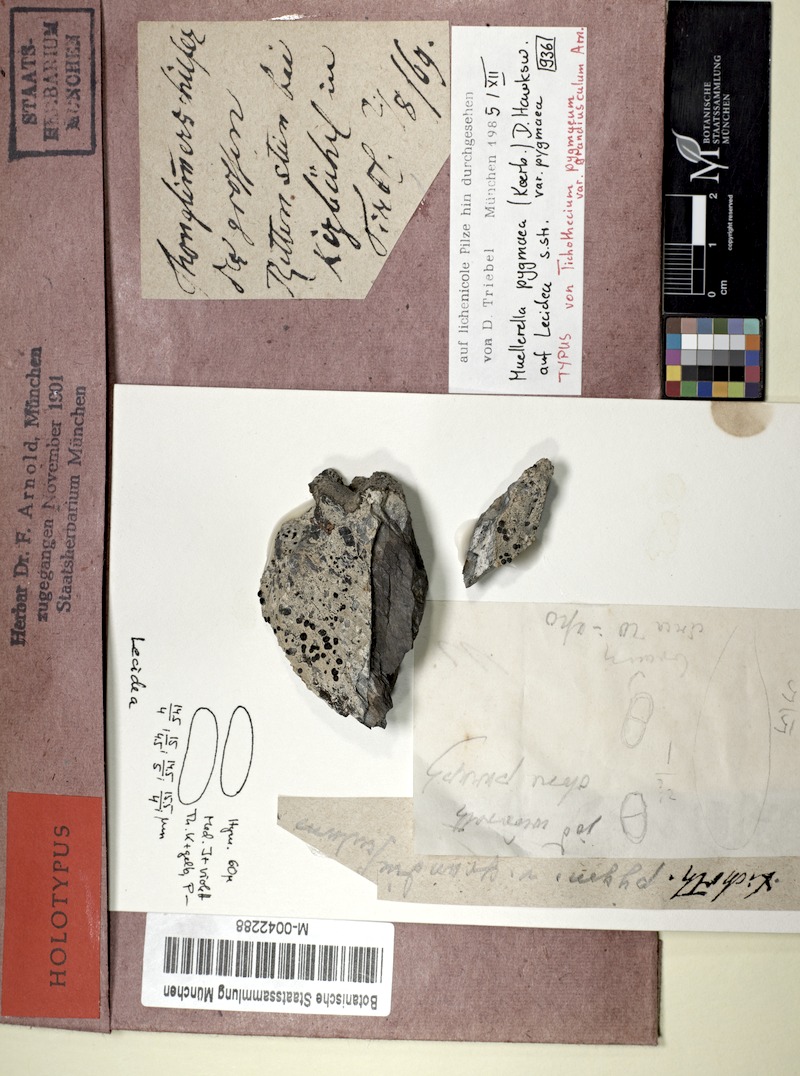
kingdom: Fungi
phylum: Ascomycota
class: Lecanoromycetes
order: Lecideales
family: Lecideaceae
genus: Lecidea
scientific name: Lecidea
